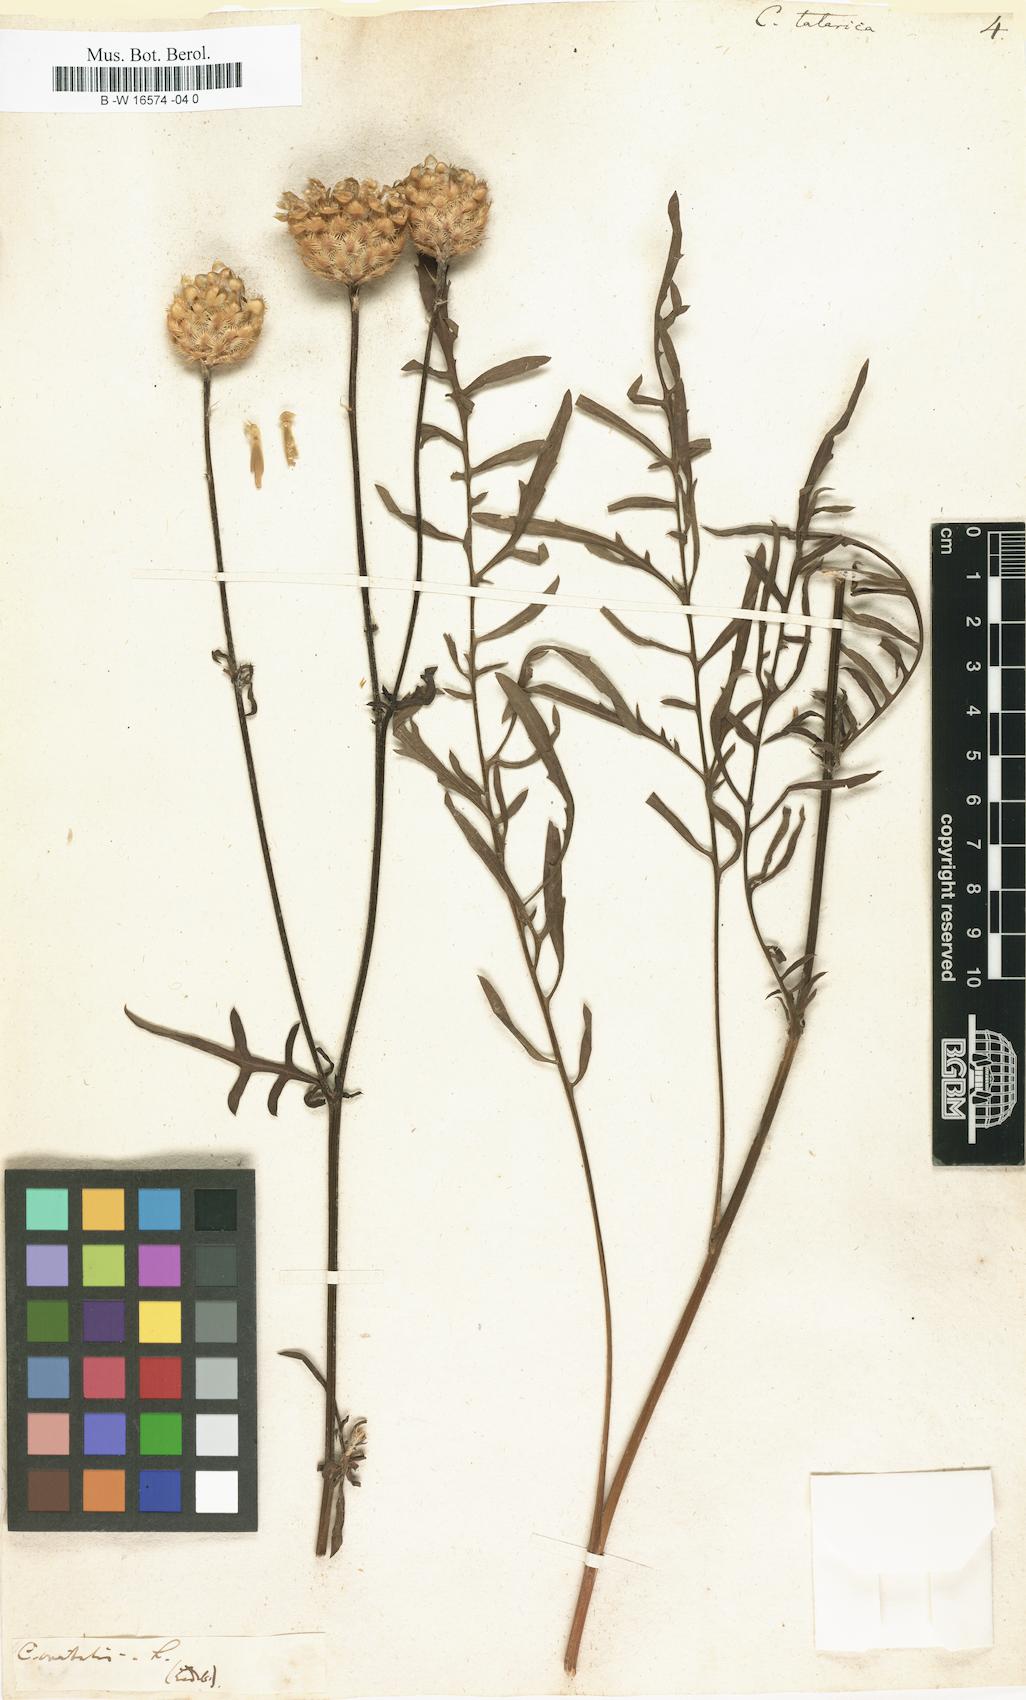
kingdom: Plantae
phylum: Tracheophyta
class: Magnoliopsida
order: Asterales
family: Asteraceae
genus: Centaurea
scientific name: Centaurea
